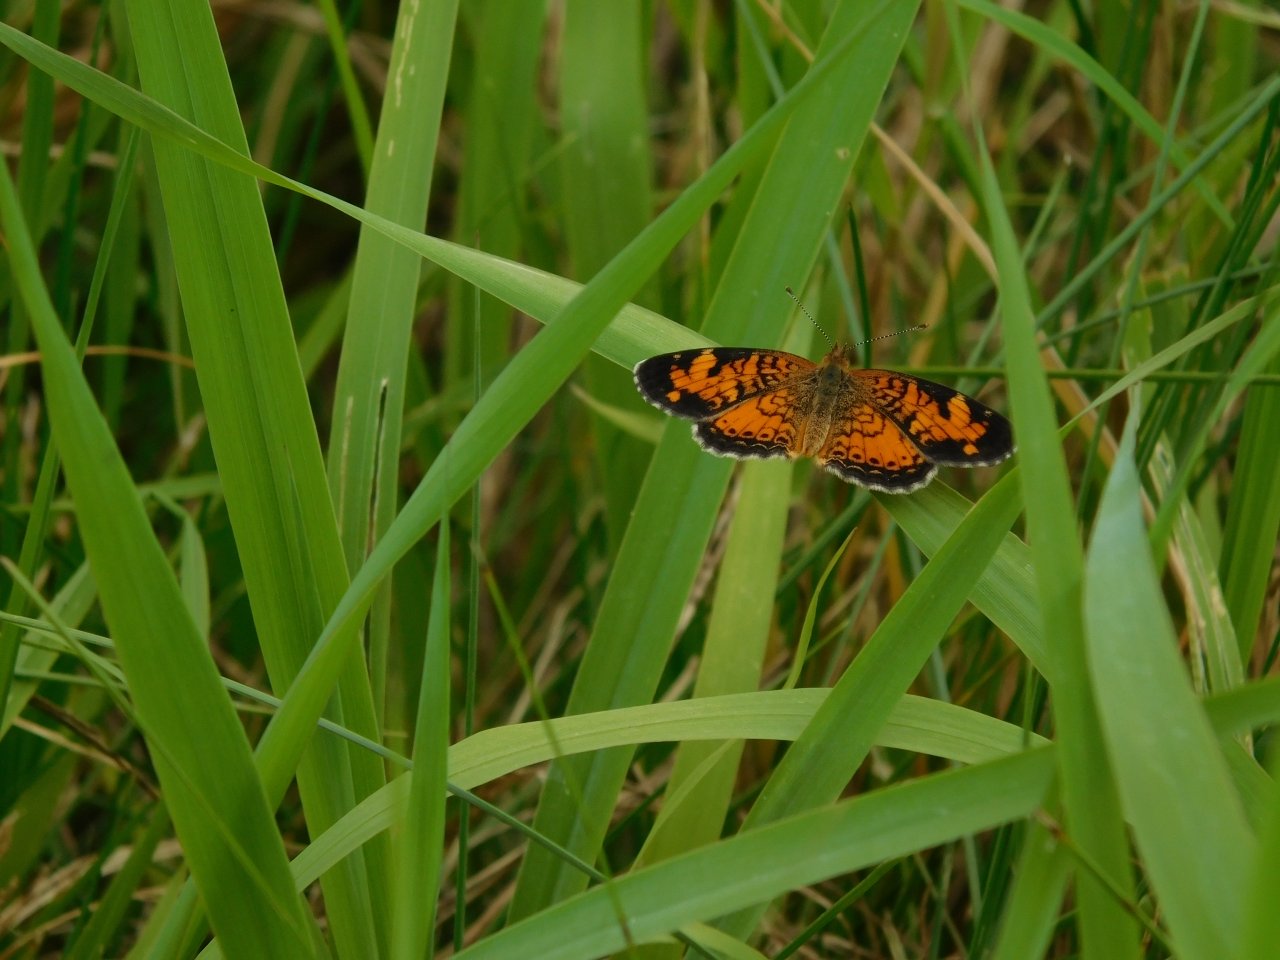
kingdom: Animalia
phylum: Arthropoda
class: Insecta
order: Lepidoptera
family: Nymphalidae
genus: Phyciodes
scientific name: Phyciodes tharos
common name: Pearl Crescent
